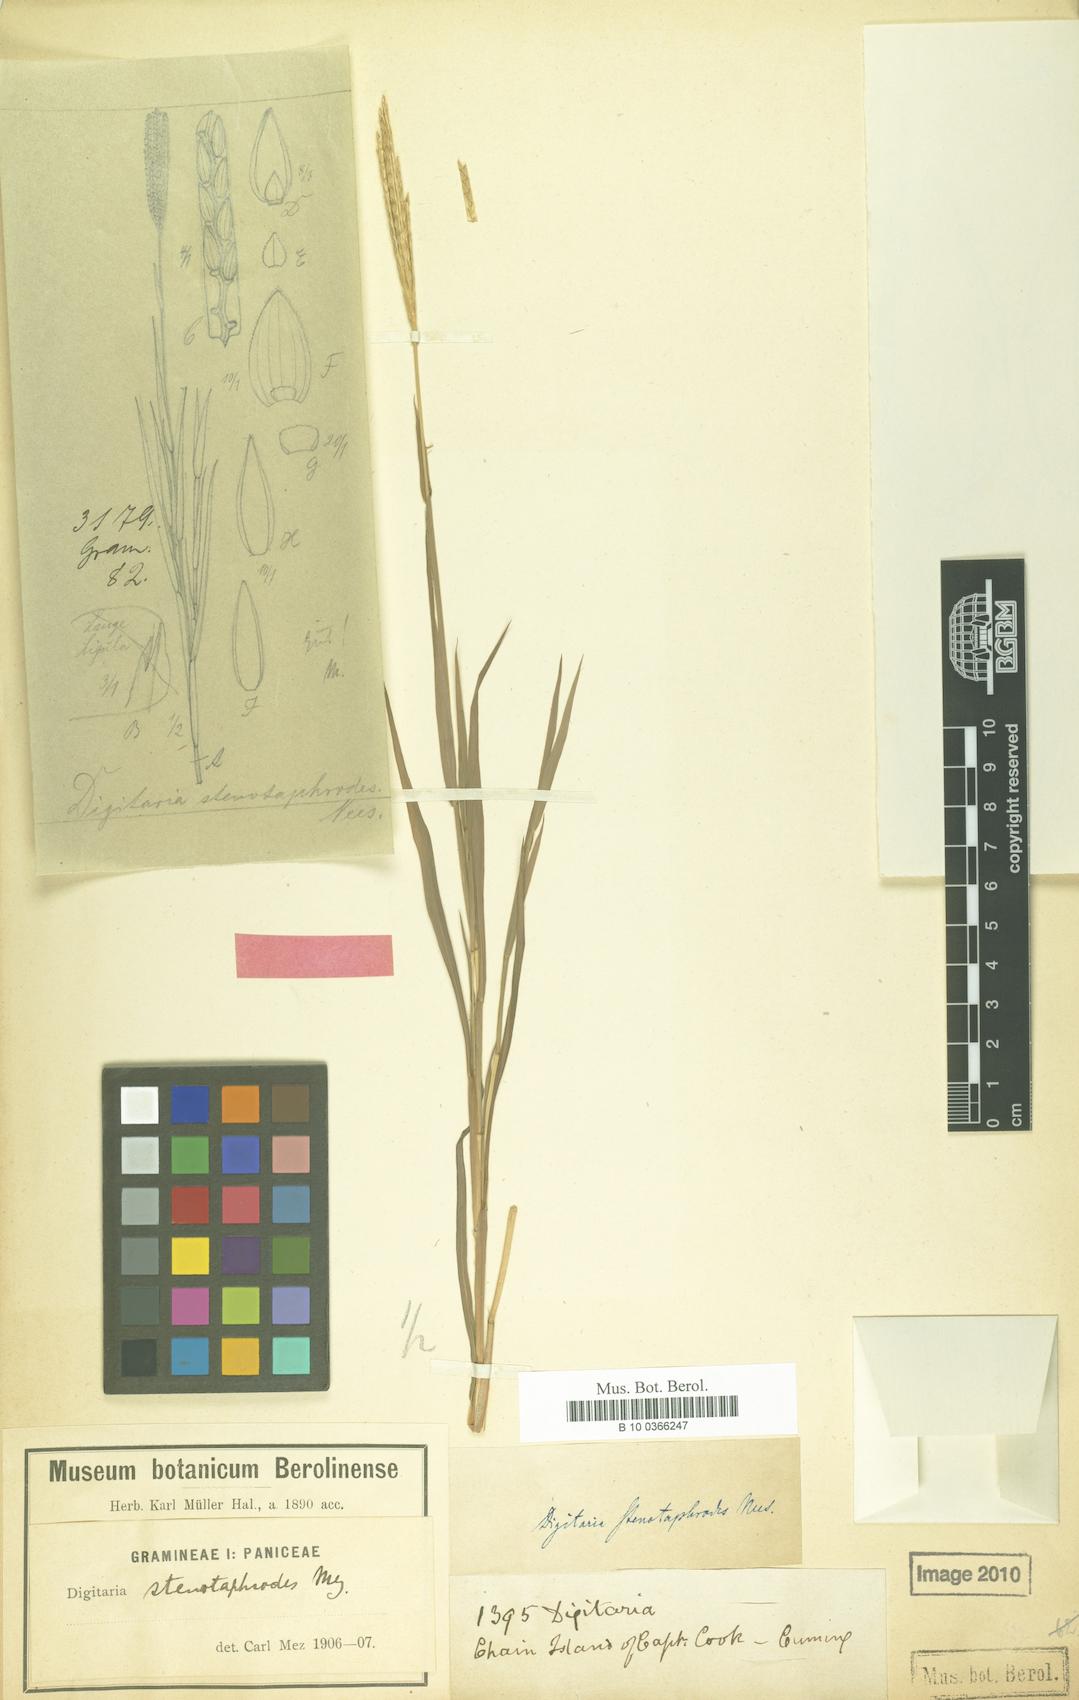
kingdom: Plantae
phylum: Tracheophyta
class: Liliopsida
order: Poales
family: Poaceae
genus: Digitaria
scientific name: Digitaria stenotaphroides
